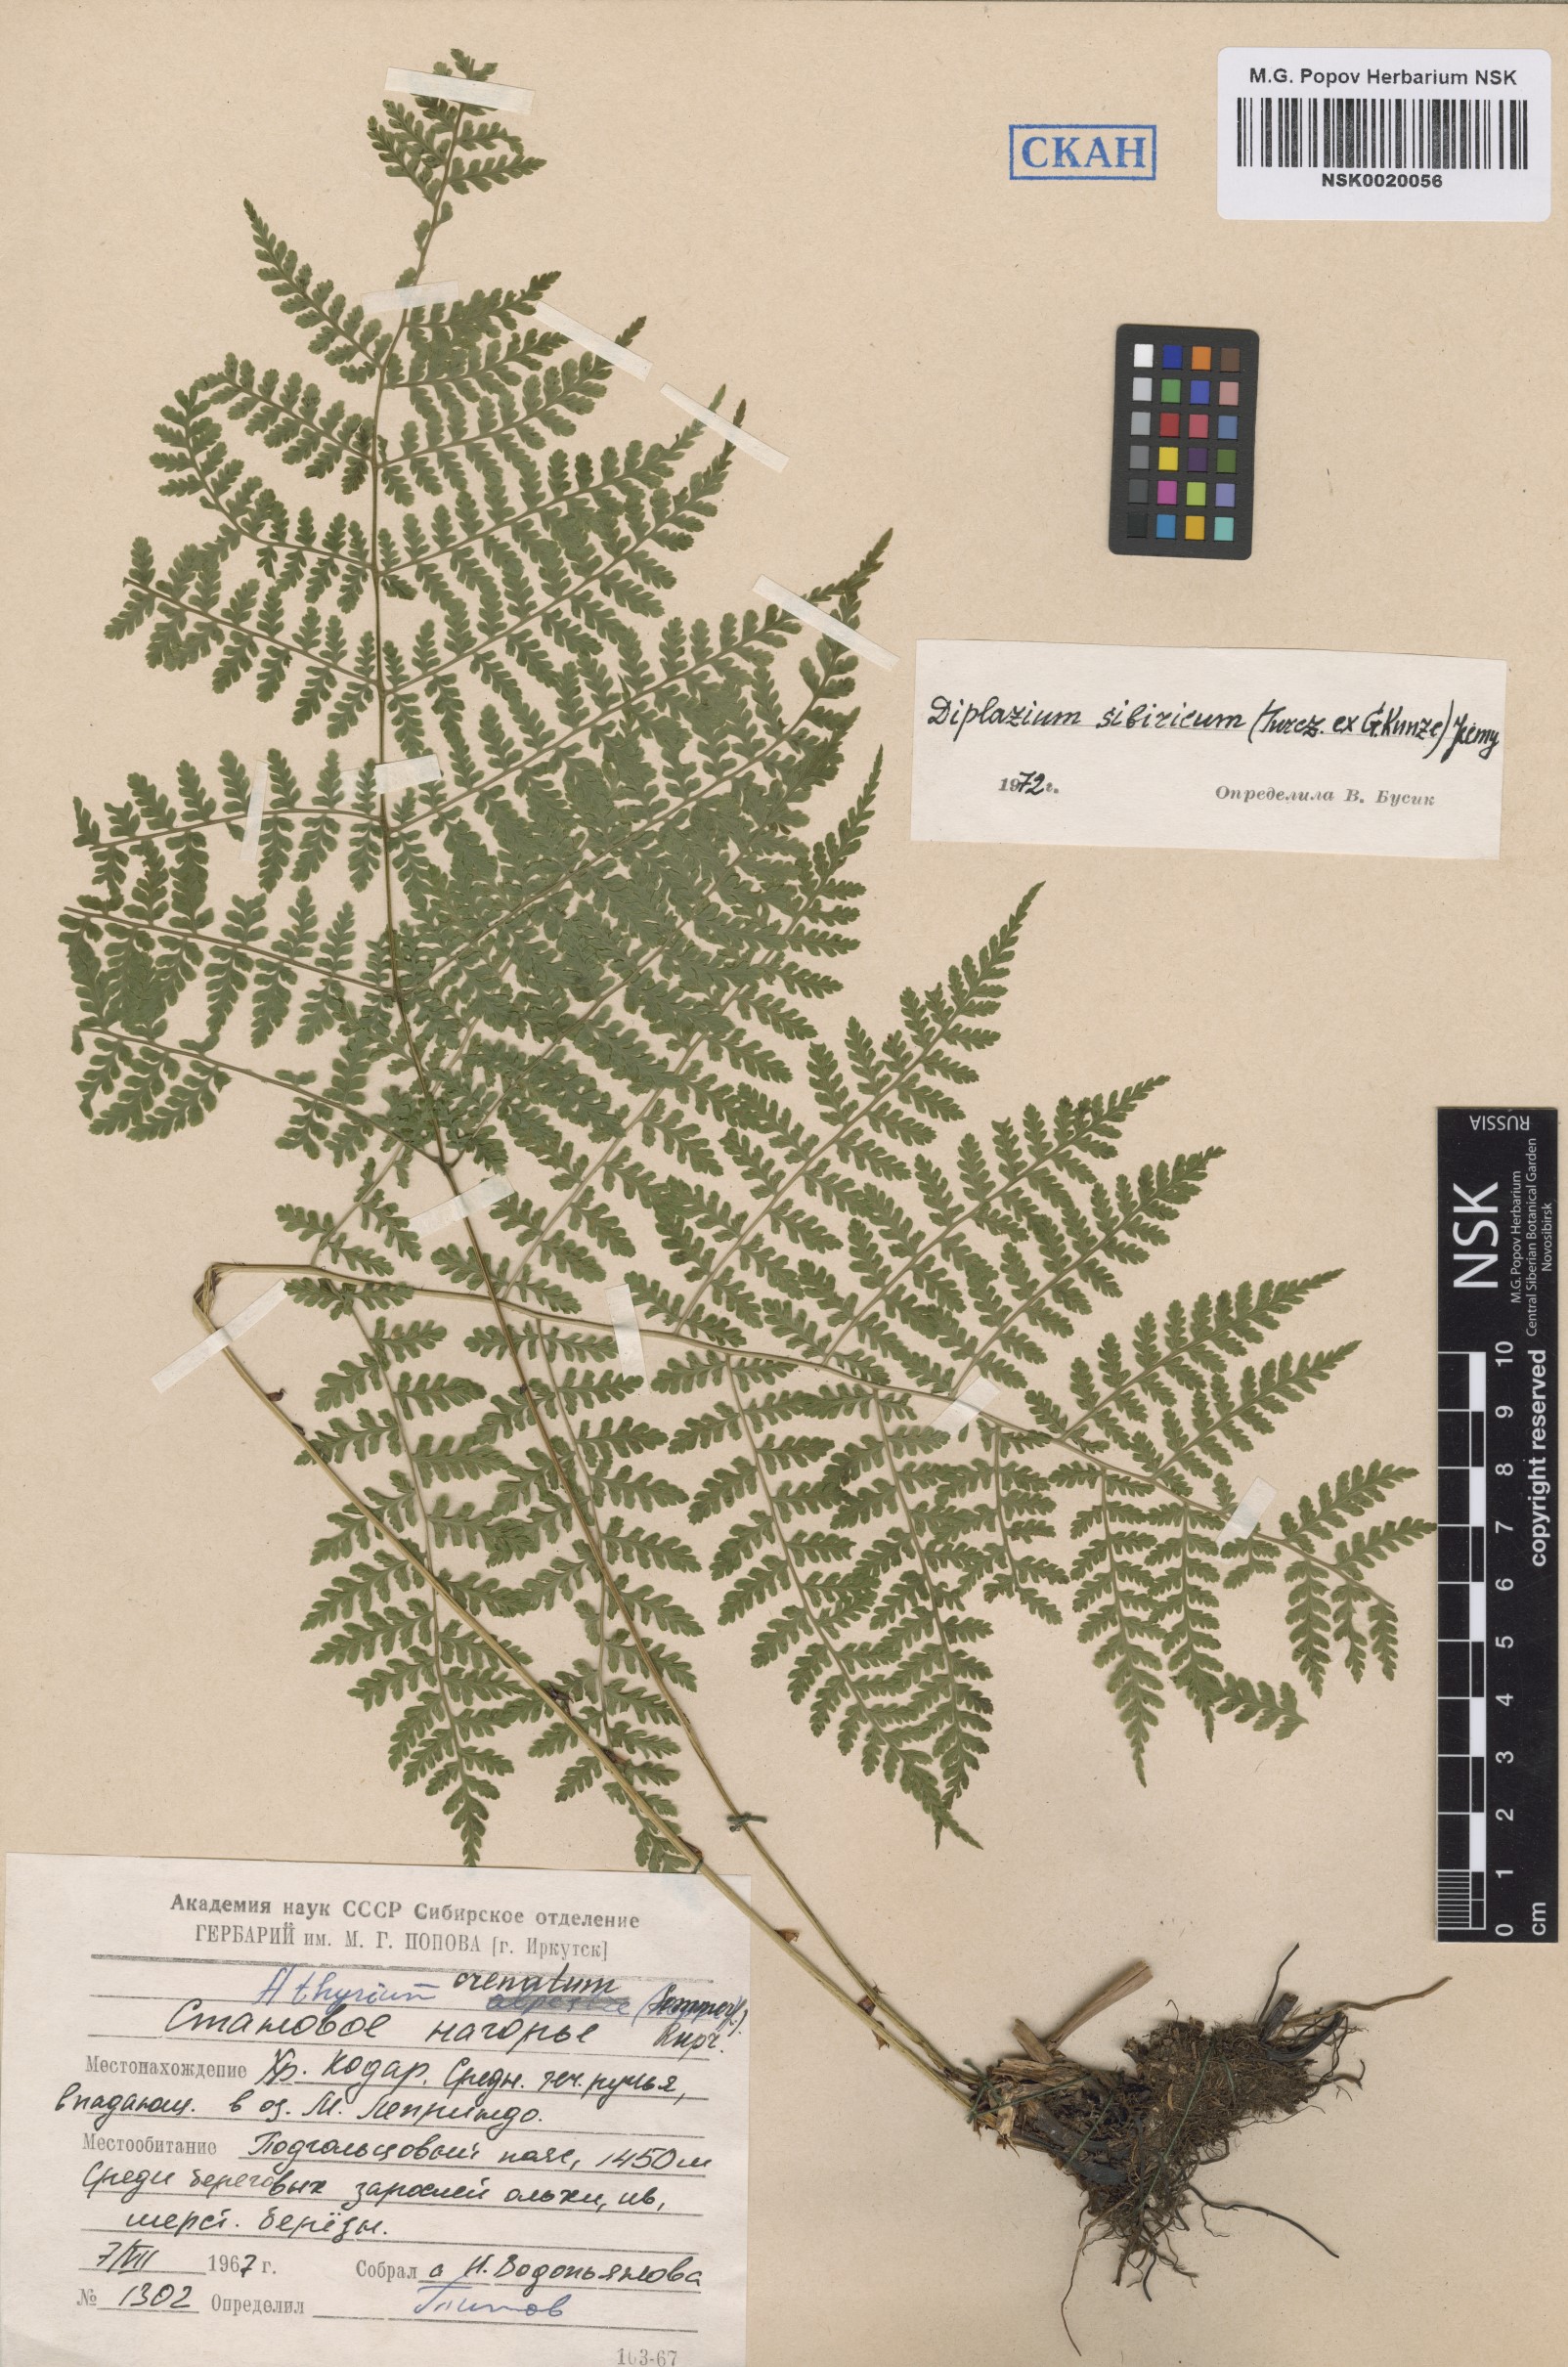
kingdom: Plantae
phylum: Tracheophyta
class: Polypodiopsida
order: Polypodiales
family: Athyriaceae
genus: Diplazium
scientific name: Diplazium sibiricum
